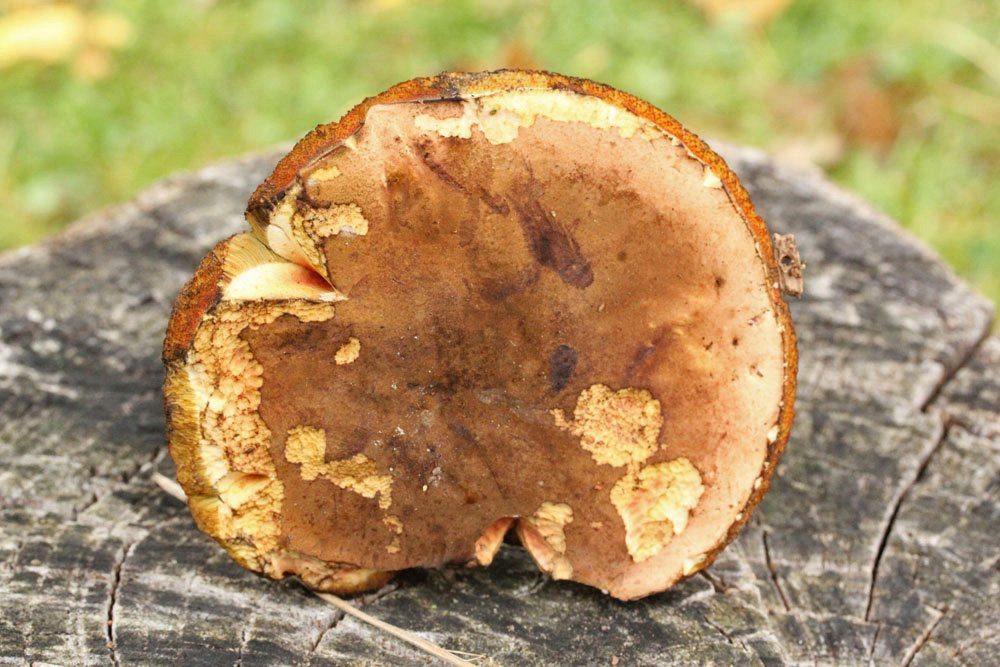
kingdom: Fungi
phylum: Basidiomycota
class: Agaricomycetes
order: Boletales
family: Boletaceae
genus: Neoboletus
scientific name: Neoboletus erythropus
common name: punktstokket indigorørhat
